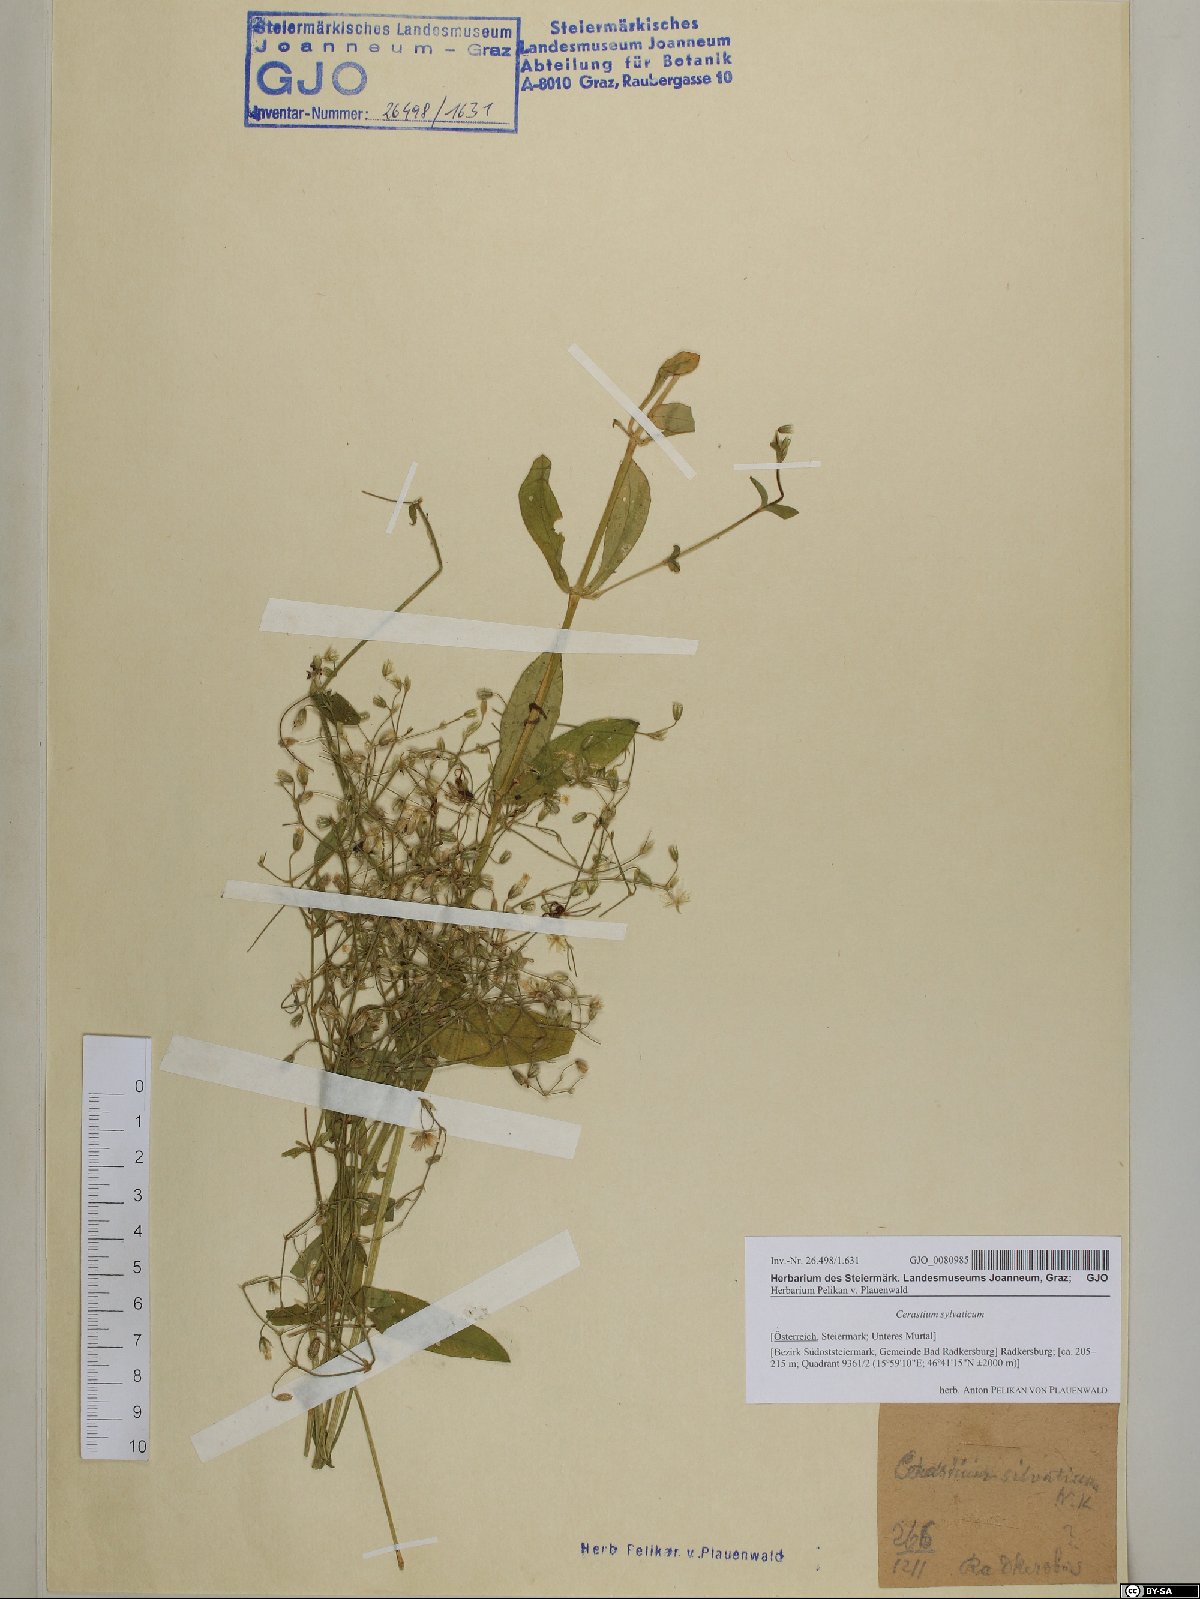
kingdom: Plantae
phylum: Tracheophyta
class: Magnoliopsida
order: Caryophyllales
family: Caryophyllaceae
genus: Cerastium
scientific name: Cerastium sylvaticum
